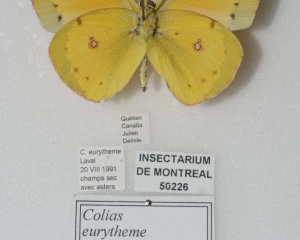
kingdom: Animalia
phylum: Arthropoda
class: Insecta
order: Lepidoptera
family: Pieridae
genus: Colias
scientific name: Colias eurytheme
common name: Orange Sulphur
